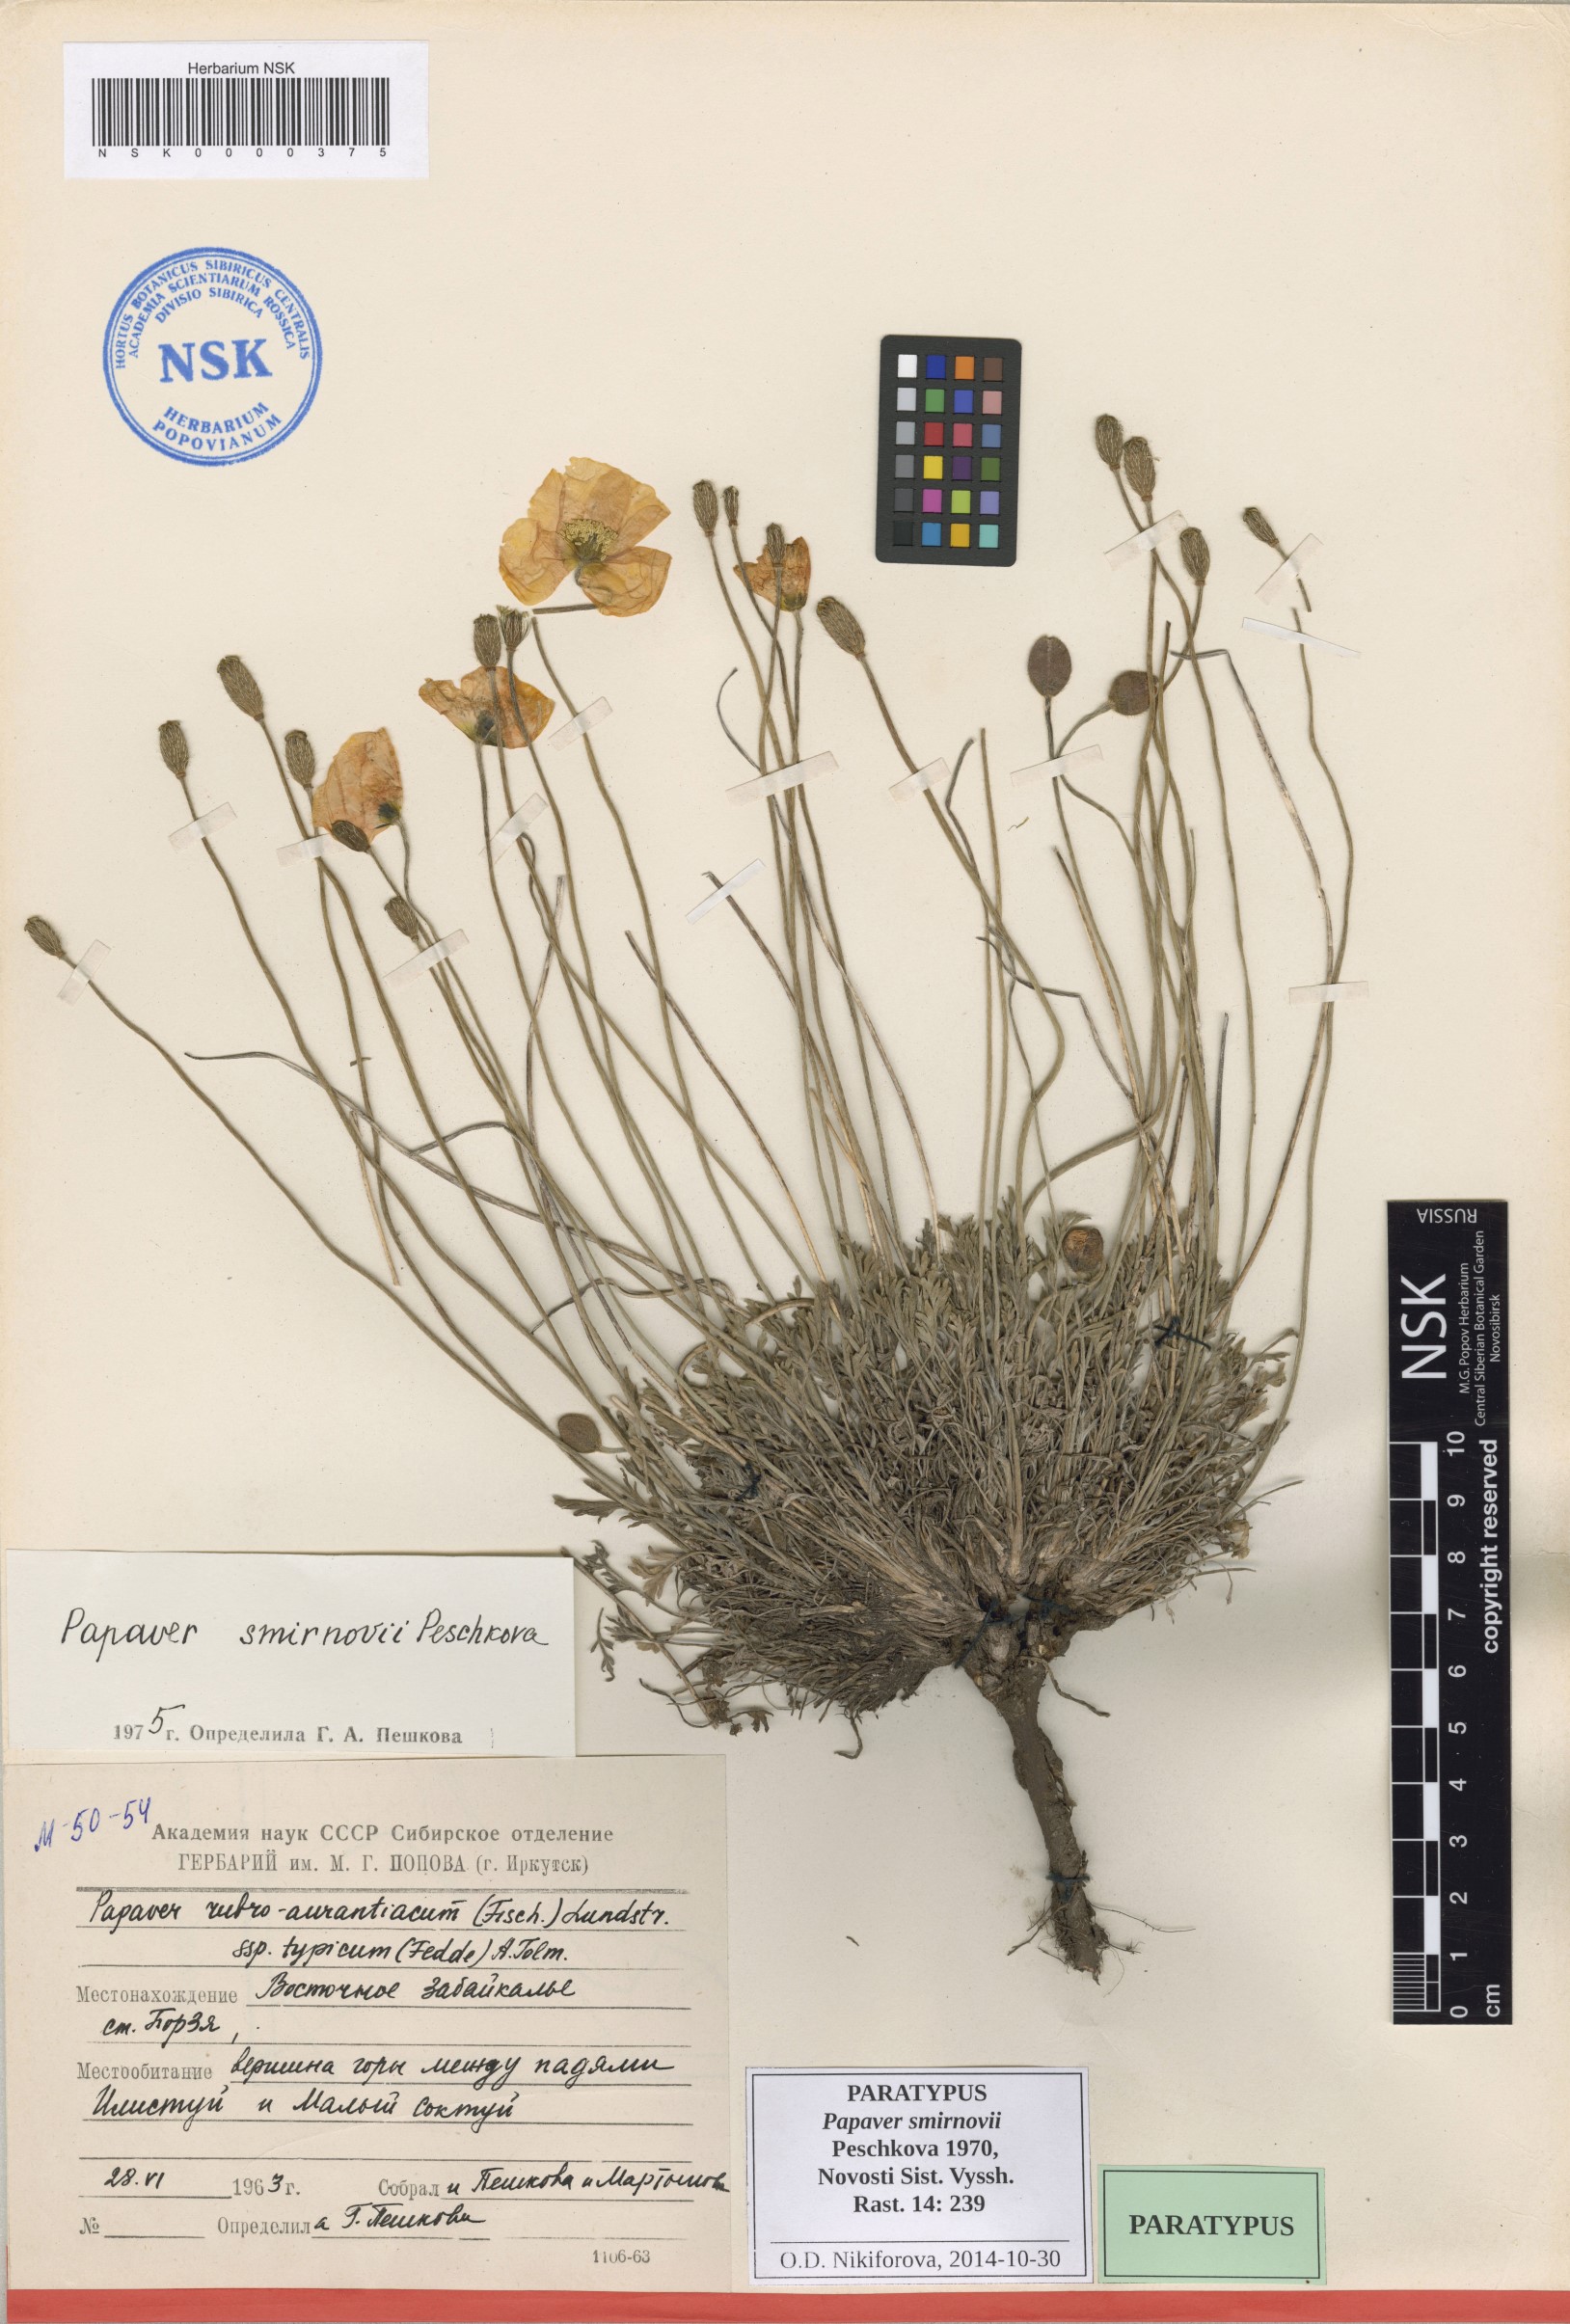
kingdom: Plantae
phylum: Tracheophyta
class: Magnoliopsida
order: Ranunculales
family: Papaveraceae
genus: Papaver
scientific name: Papaver rubroaurantiacum
